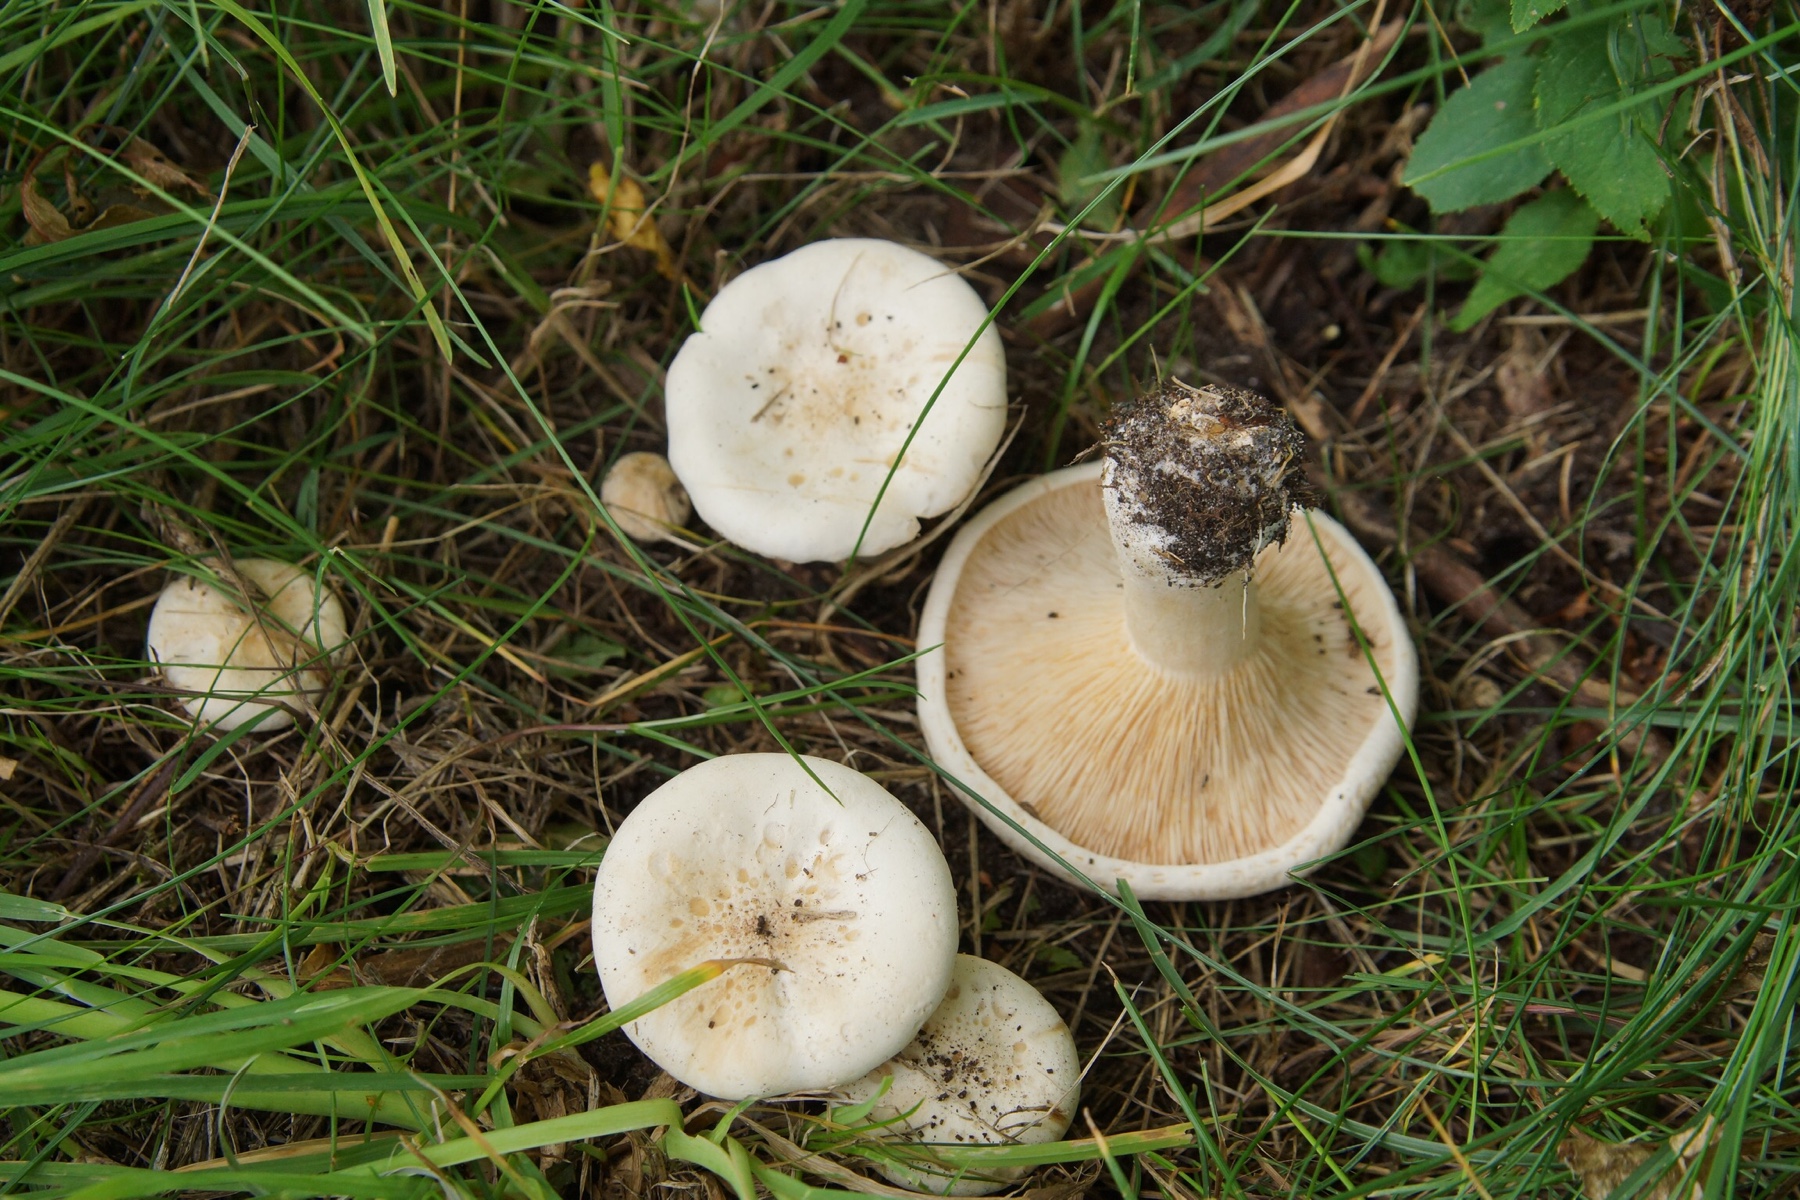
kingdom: Fungi
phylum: Basidiomycota
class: Agaricomycetes
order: Agaricales
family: Tricholomataceae
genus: Aspropaxillus
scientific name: Aspropaxillus giganteus
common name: kæmpe-tragtridderhat
